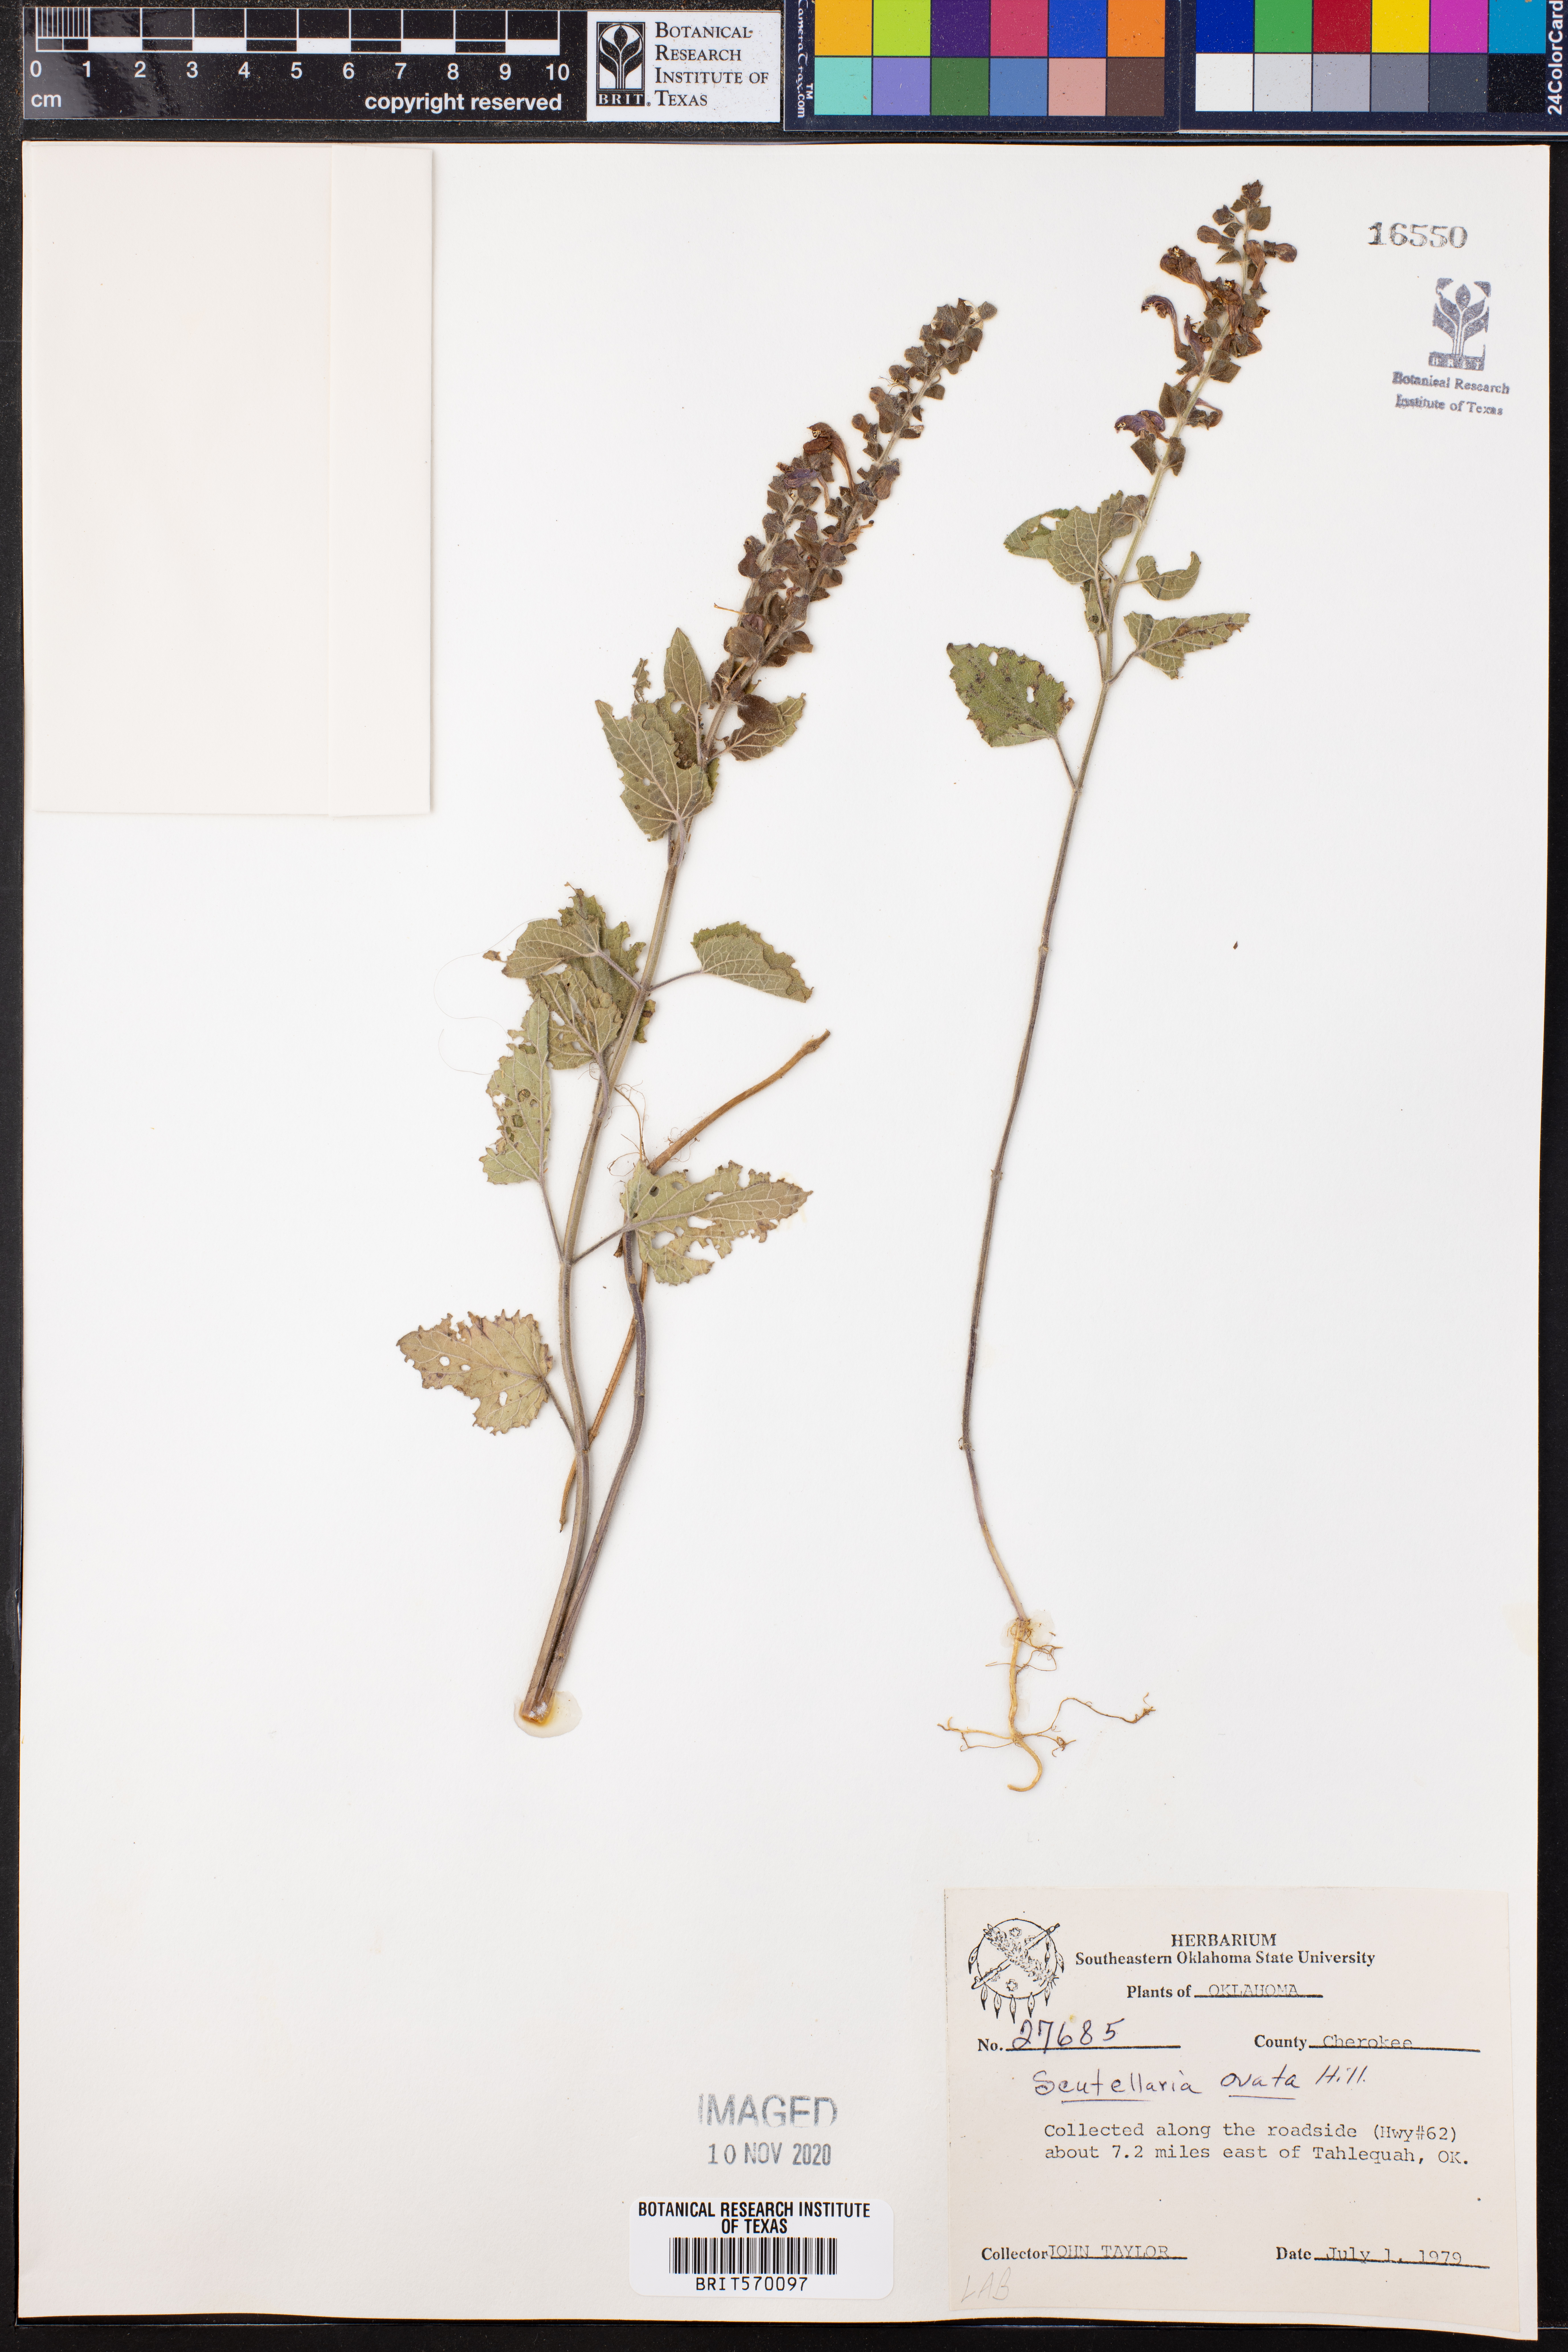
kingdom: Plantae
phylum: Tracheophyta
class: Magnoliopsida
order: Lamiales
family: Lamiaceae
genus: Scutellaria
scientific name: Scutellaria ovata
